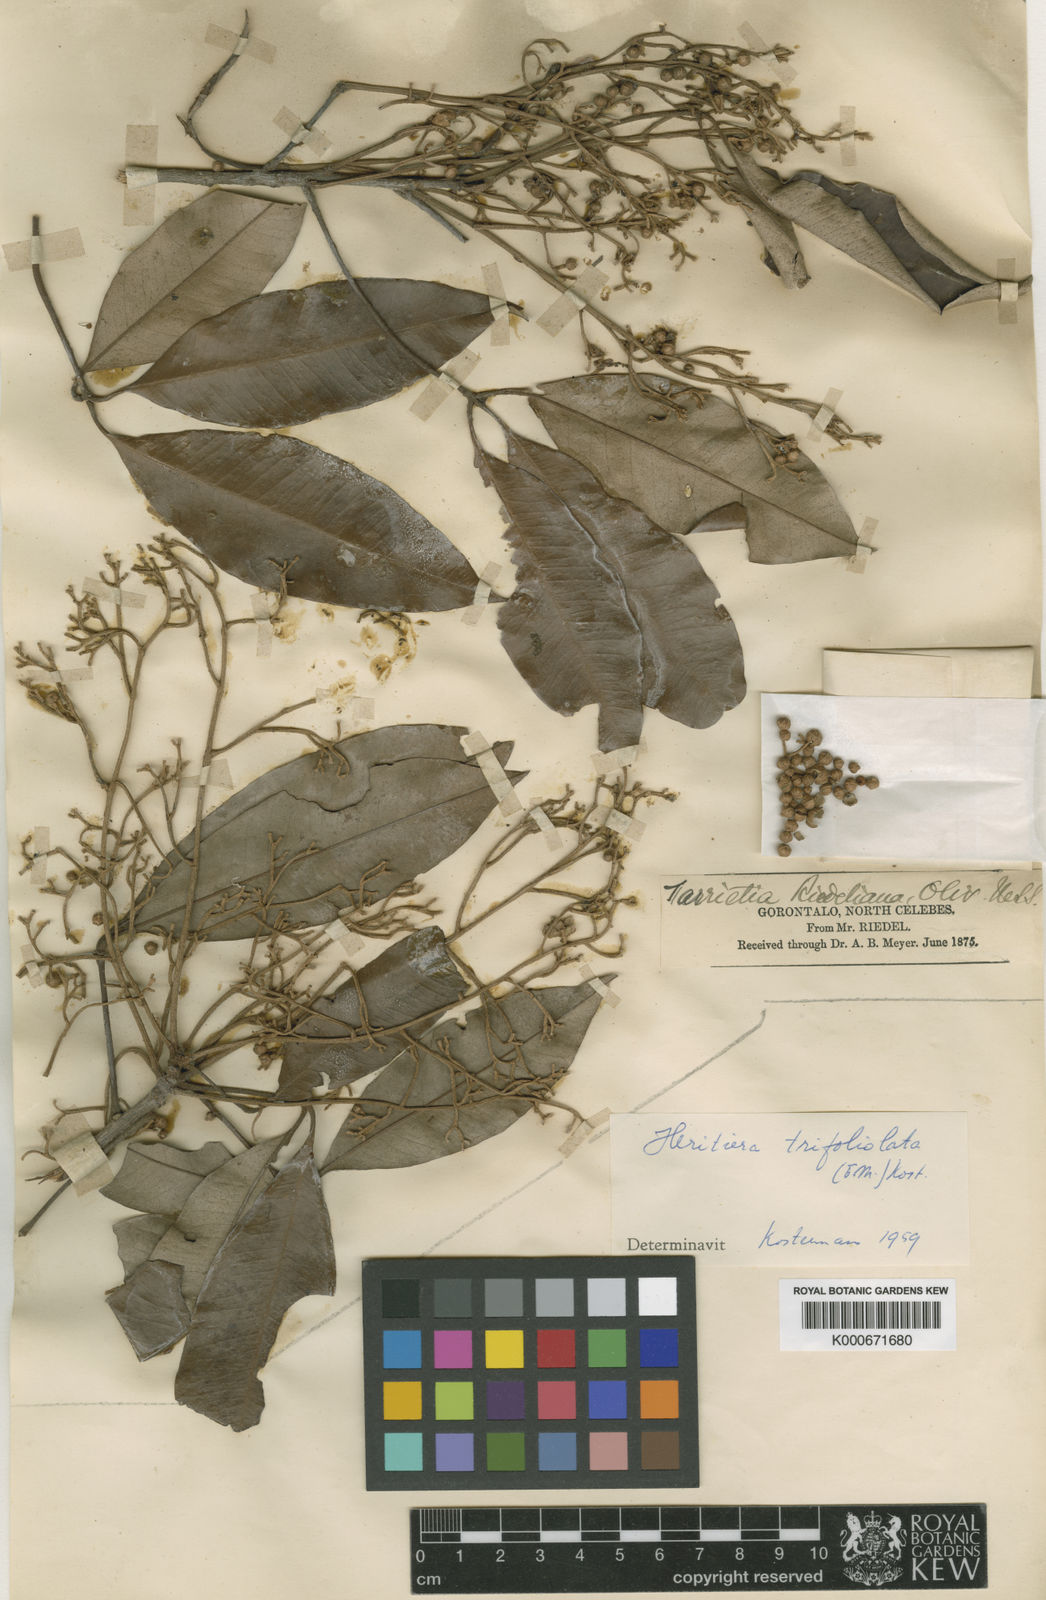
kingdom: Plantae
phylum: Tracheophyta
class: Magnoliopsida
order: Malvales
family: Malvaceae
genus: Argyrodendron
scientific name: Argyrodendron trifoliolatum
